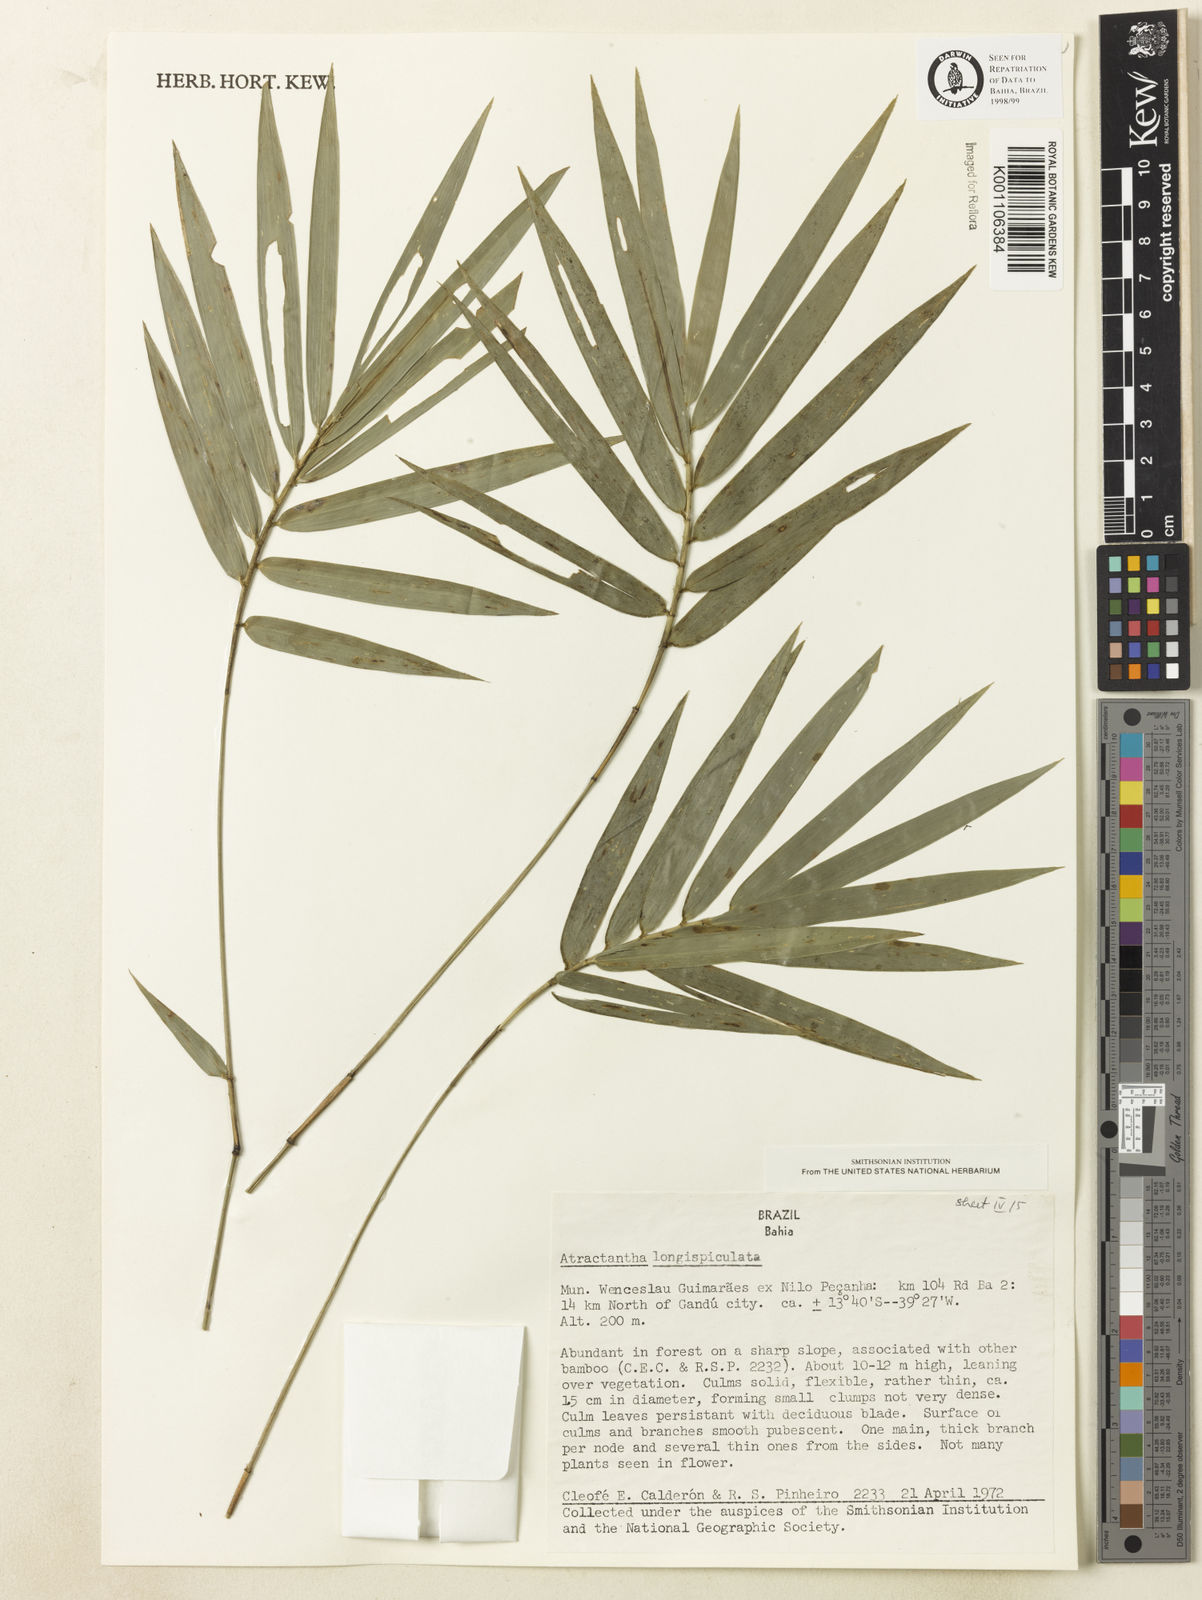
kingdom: Plantae
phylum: Tracheophyta
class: Liliopsida
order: Poales
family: Poaceae
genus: Atractantha
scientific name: Atractantha aureolanata
